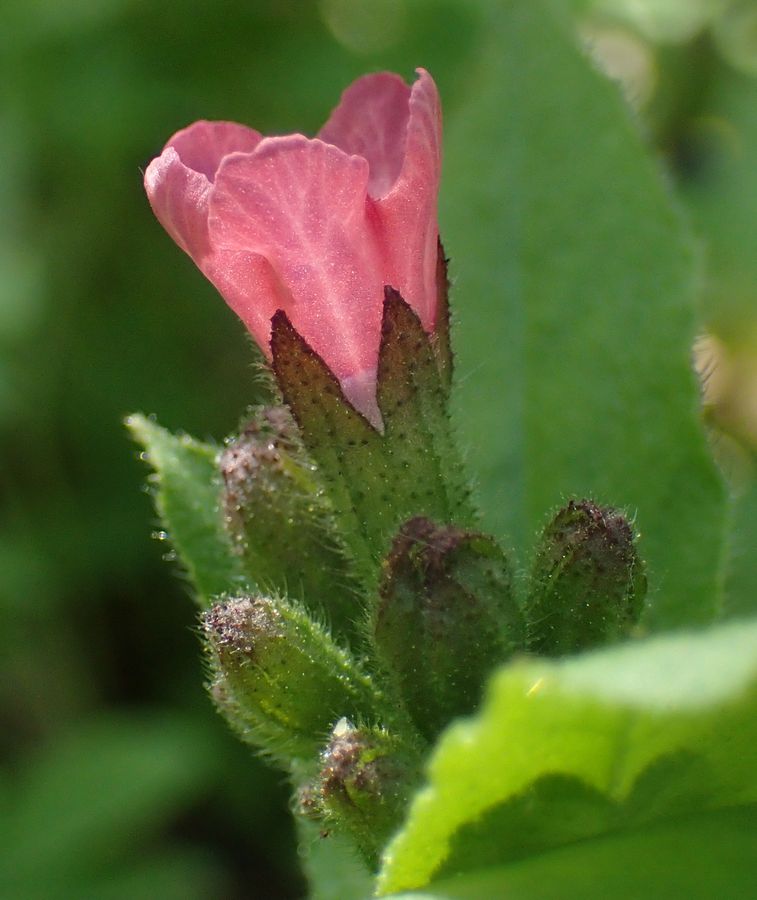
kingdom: Plantae
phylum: Tracheophyta
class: Magnoliopsida
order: Boraginales
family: Boraginaceae
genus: Pulmonaria
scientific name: Pulmonaria obscura
